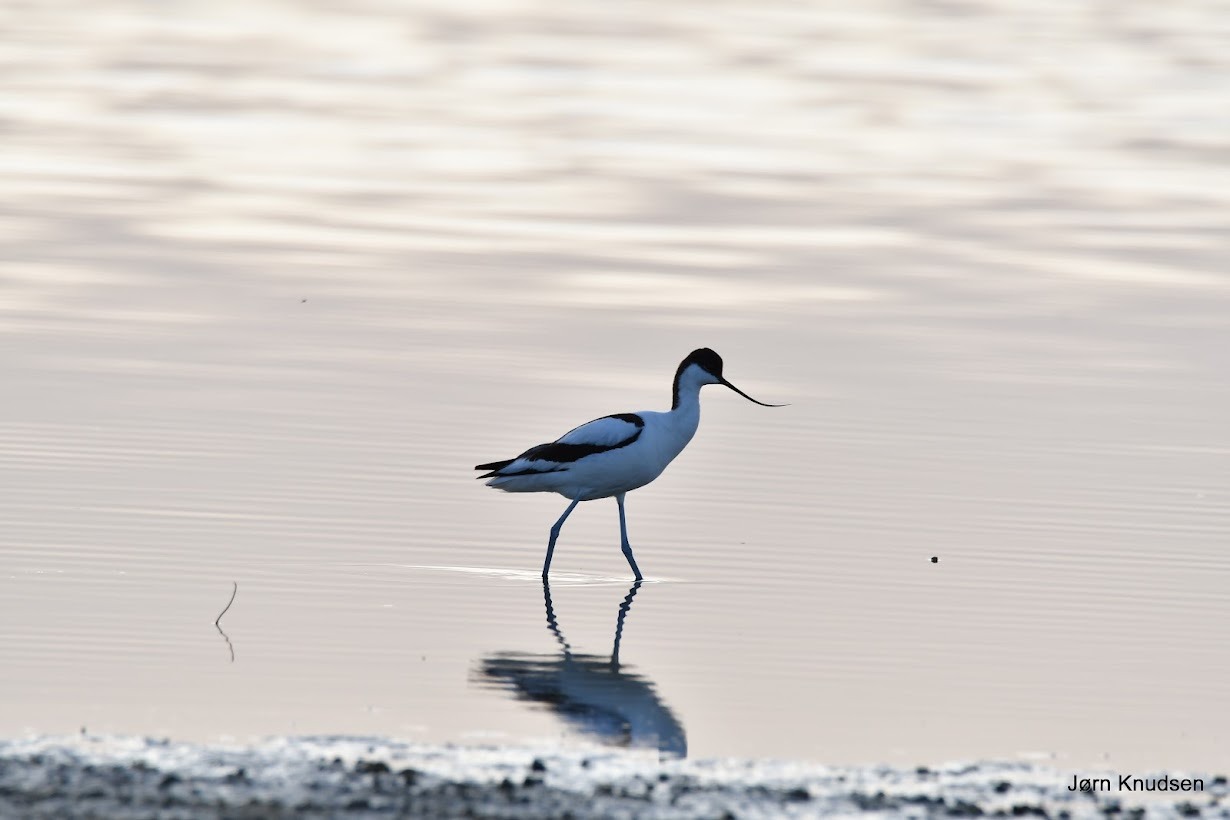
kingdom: Animalia
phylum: Chordata
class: Aves
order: Charadriiformes
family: Recurvirostridae
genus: Recurvirostra
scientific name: Recurvirostra avosetta
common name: Klyde
